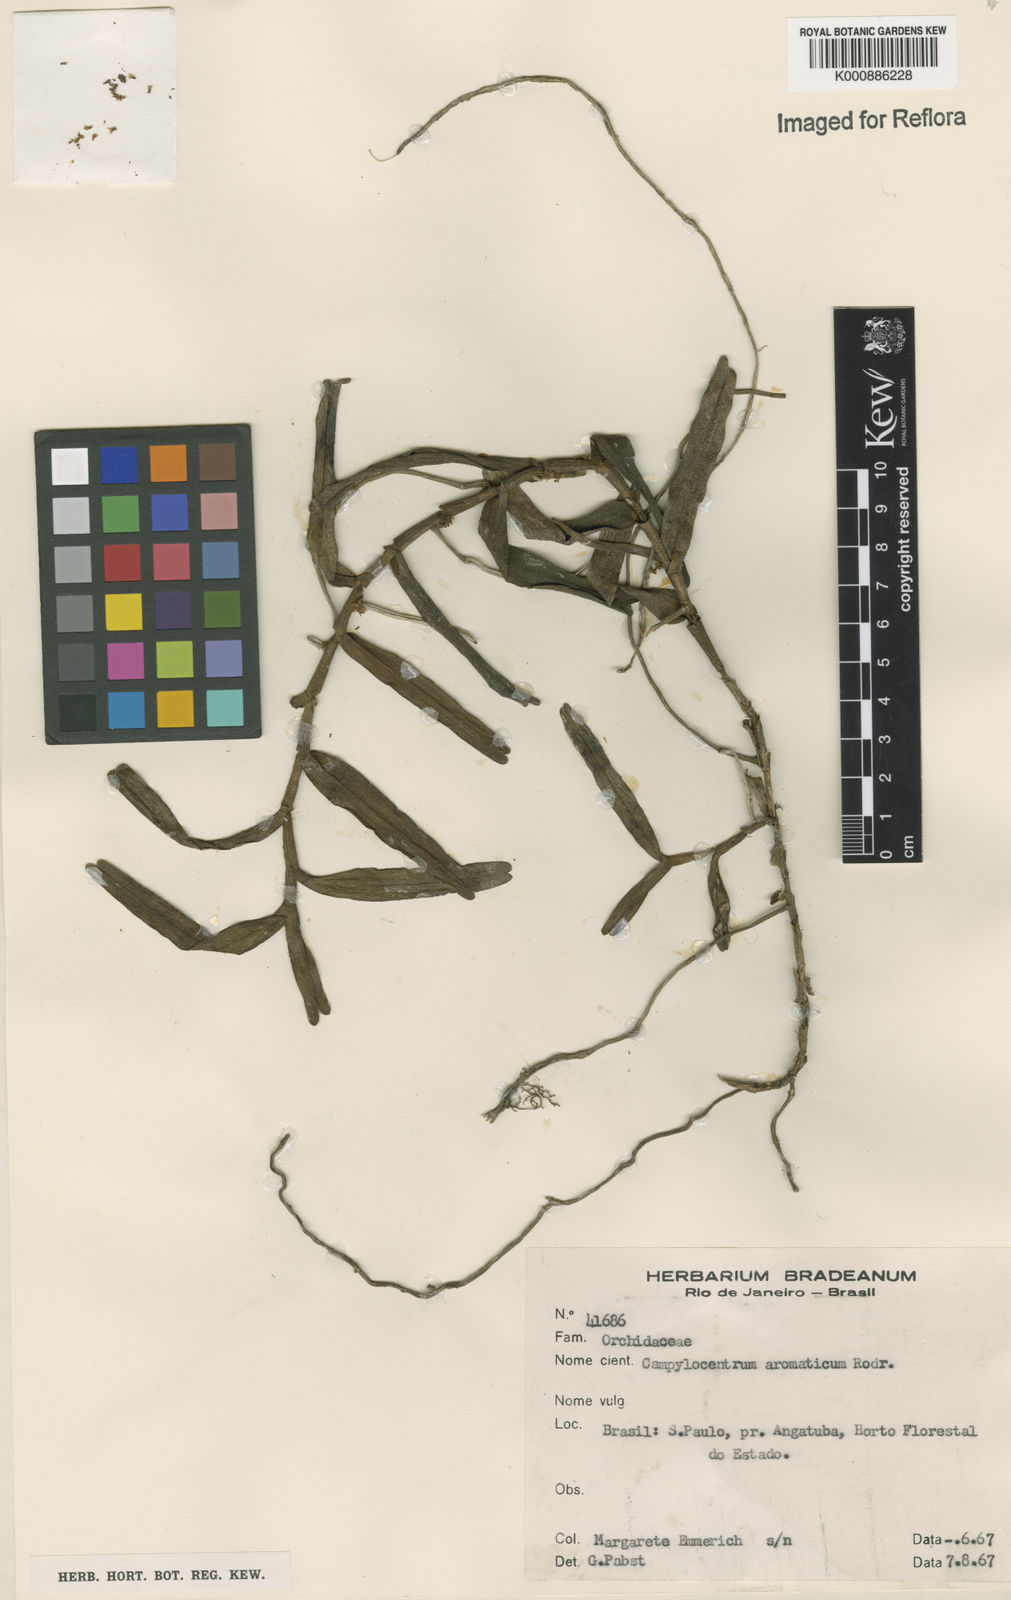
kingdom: Plantae
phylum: Tracheophyta
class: Liliopsida
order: Asparagales
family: Orchidaceae
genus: Campylocentrum
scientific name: Campylocentrum aromaticum
